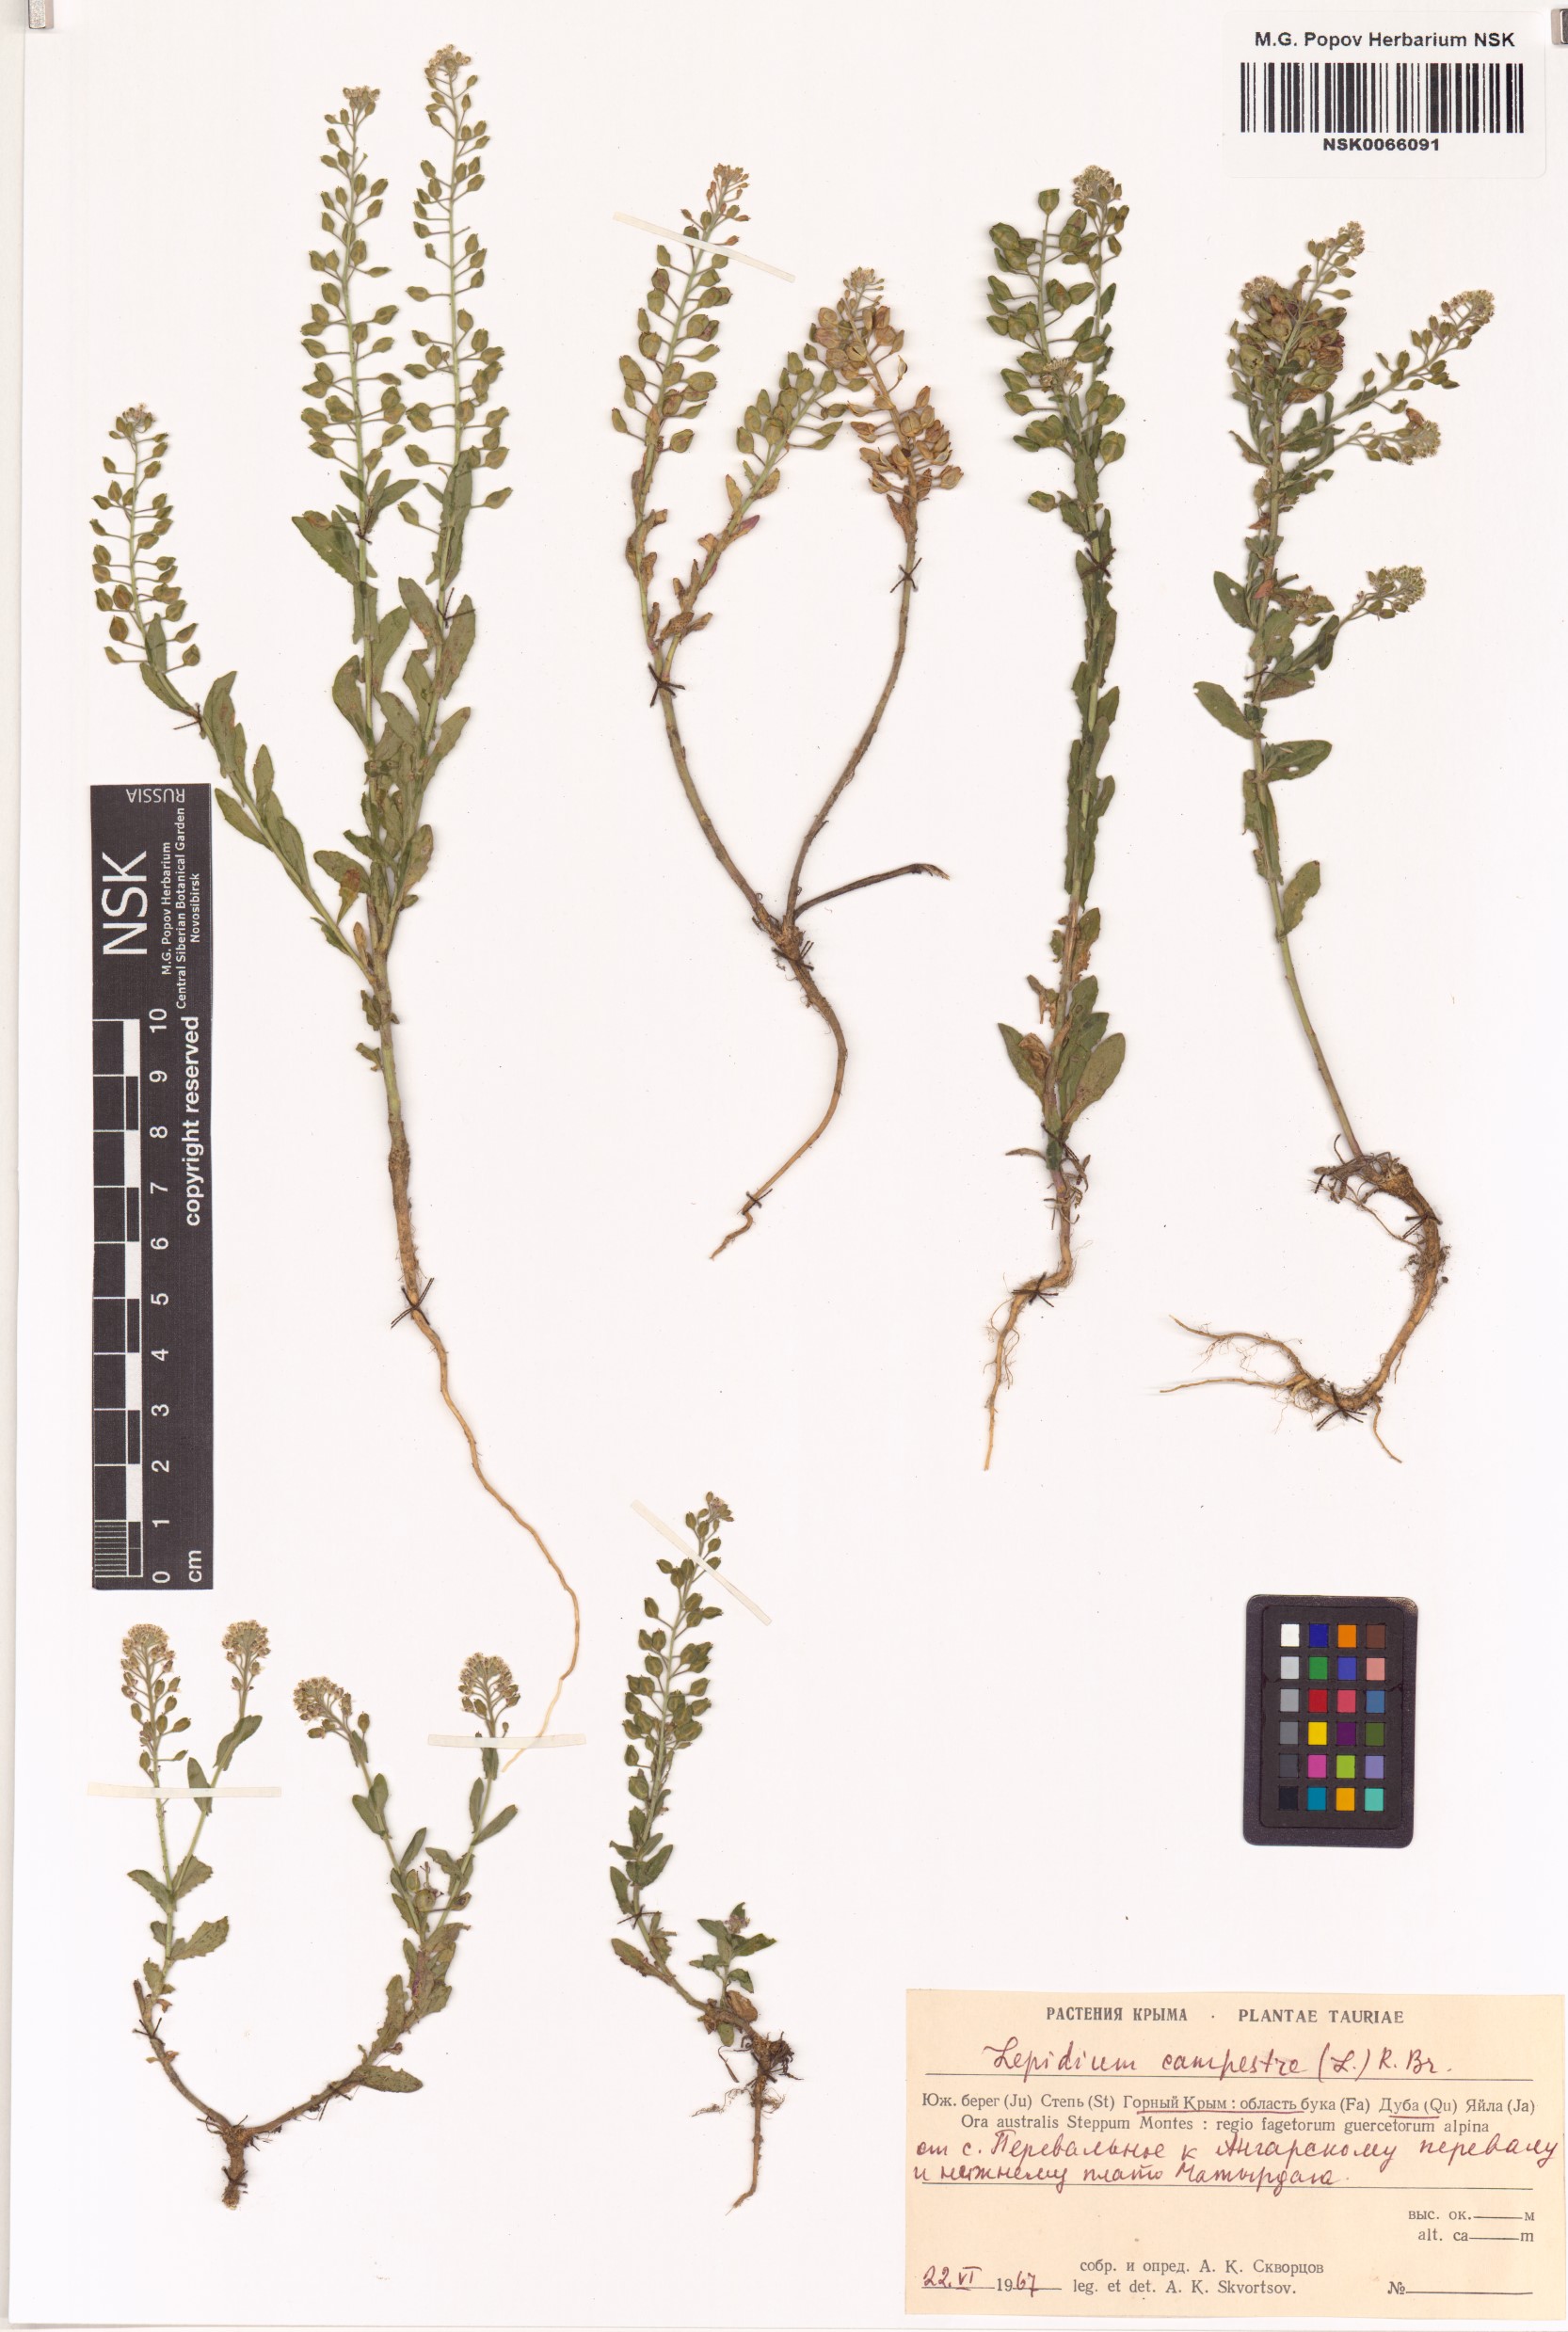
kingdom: Plantae
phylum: Tracheophyta
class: Magnoliopsida
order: Brassicales
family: Brassicaceae
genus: Lepidium
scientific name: Lepidium campestre
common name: Field pepperwort
